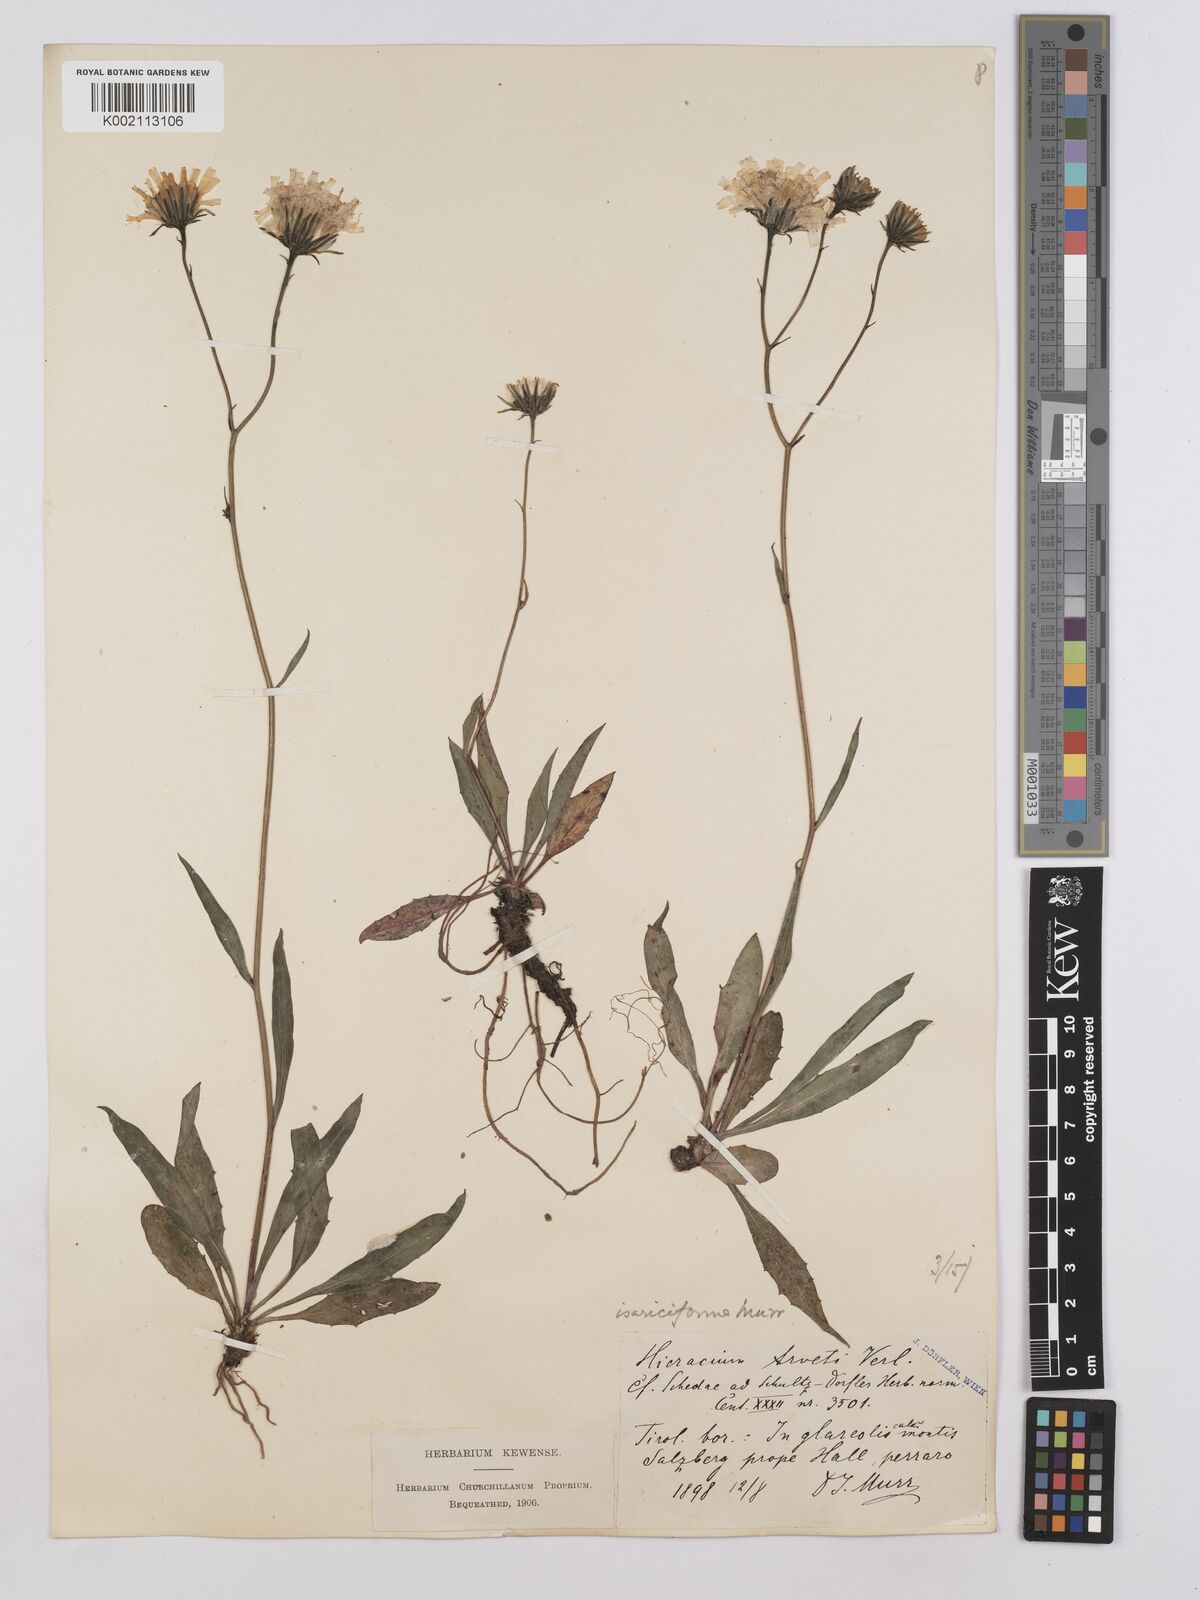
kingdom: Plantae
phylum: Tracheophyta
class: Magnoliopsida
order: Asterales
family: Asteraceae
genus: Hieracium
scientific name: Hieracium glaucum
